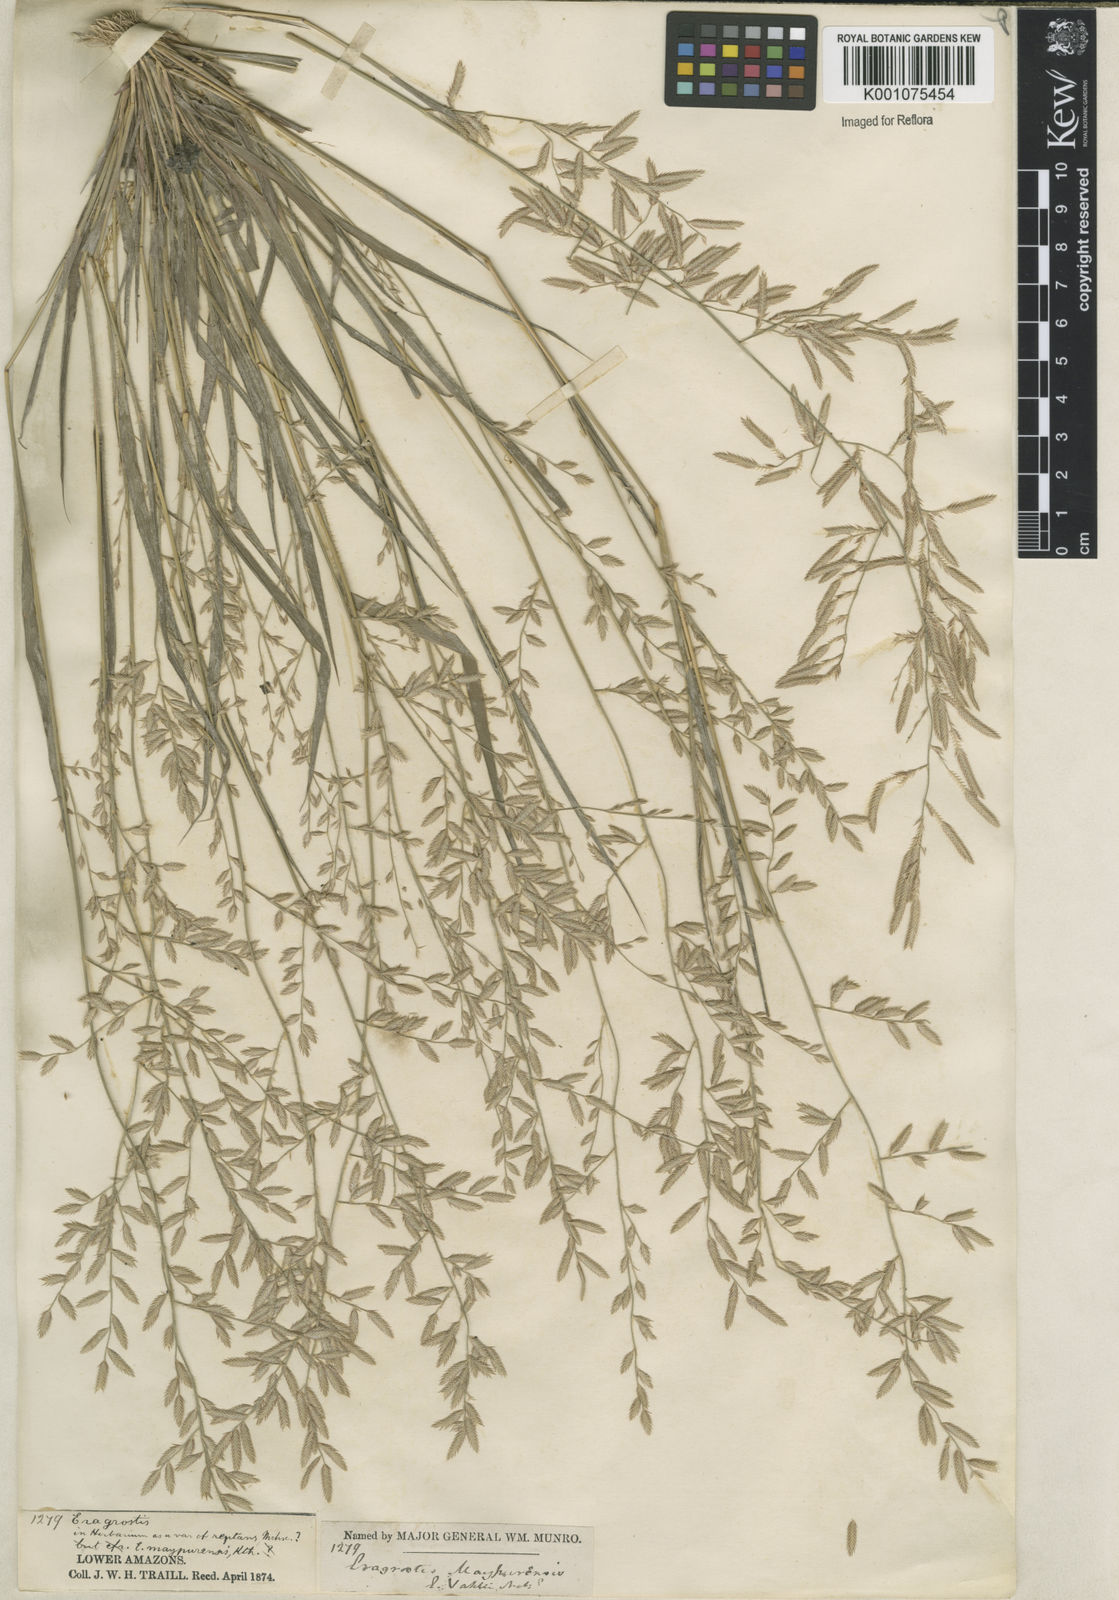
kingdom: Plantae
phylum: Tracheophyta
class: Liliopsida
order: Poales
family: Poaceae
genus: Eragrostis
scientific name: Eragrostis maypurensis
